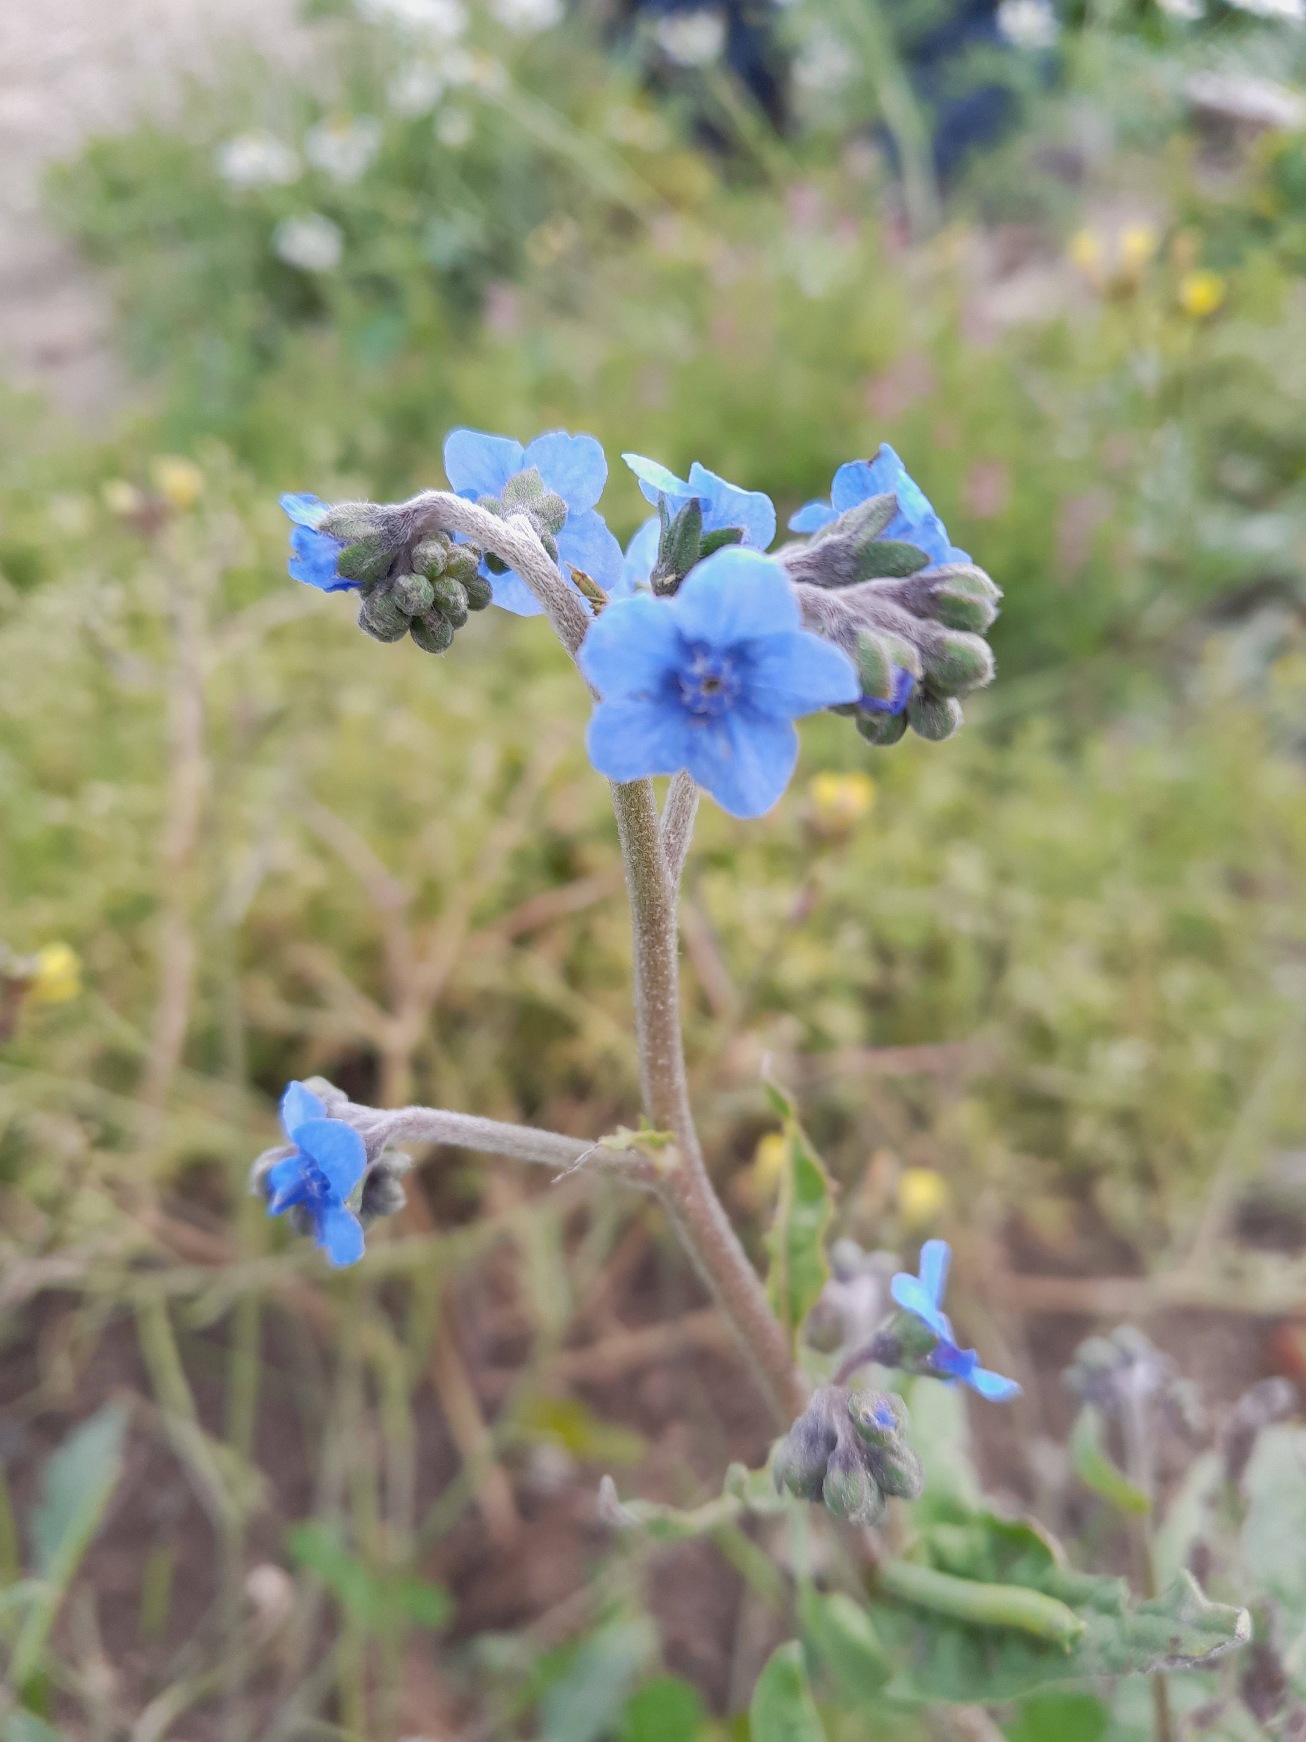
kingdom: Plantae
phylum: Tracheophyta
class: Magnoliopsida
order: Boraginales
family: Boraginaceae
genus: Cynoglossum
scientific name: Cynoglossum amabile
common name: Kinesisk hundetunge
